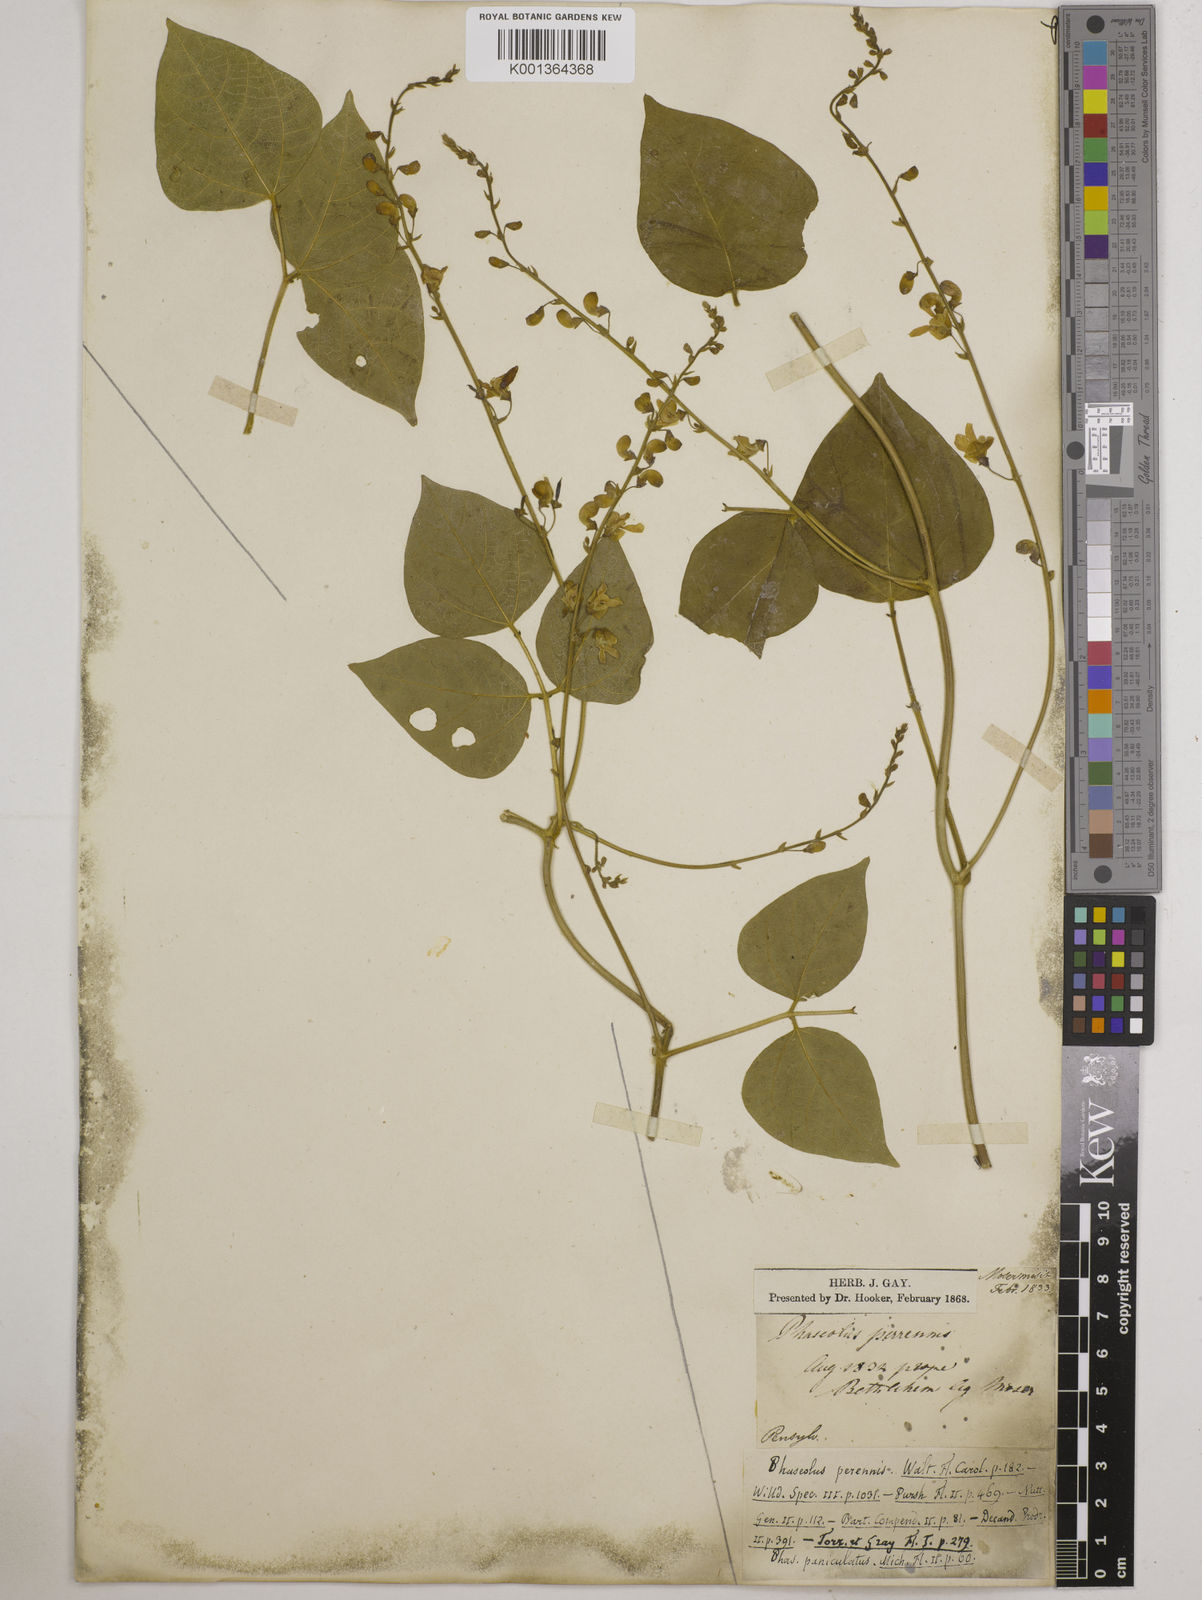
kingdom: Plantae
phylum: Tracheophyta
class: Magnoliopsida
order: Fabales
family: Fabaceae
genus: Phaseolus
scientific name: Phaseolus
